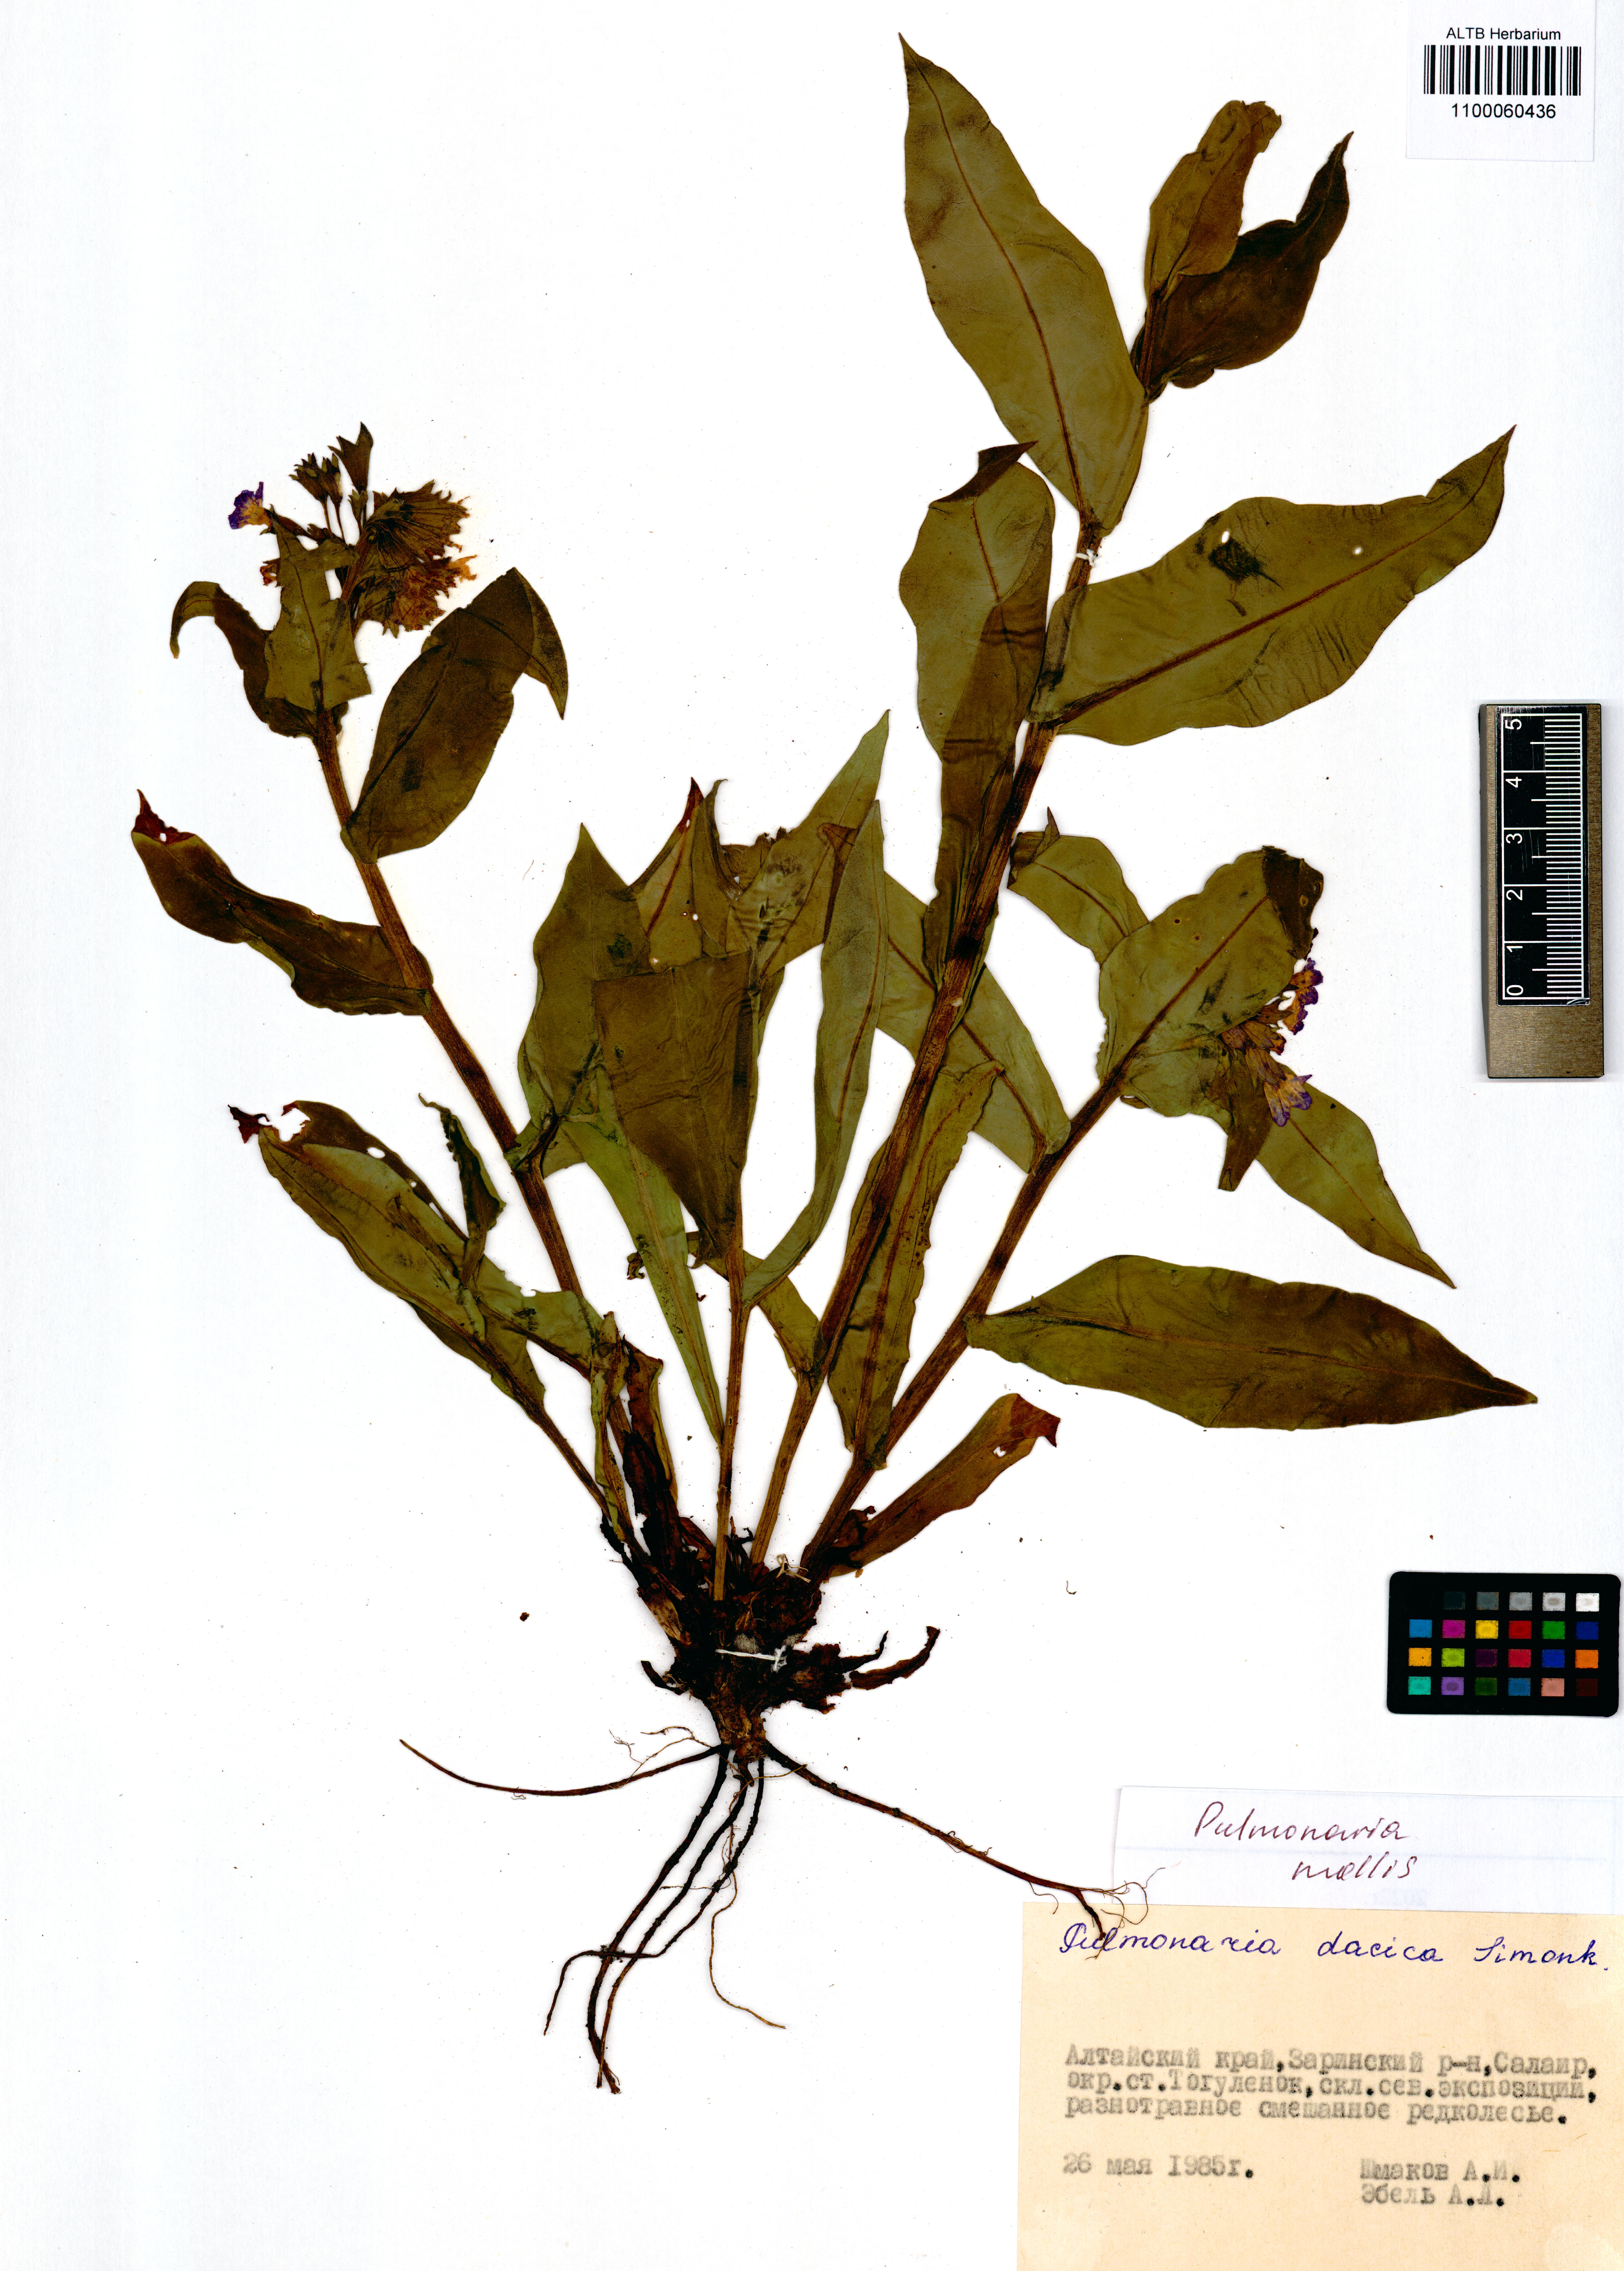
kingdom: Plantae
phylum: Tracheophyta
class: Magnoliopsida
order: Boraginales
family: Boraginaceae
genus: Pulmonaria
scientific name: Pulmonaria mollis
